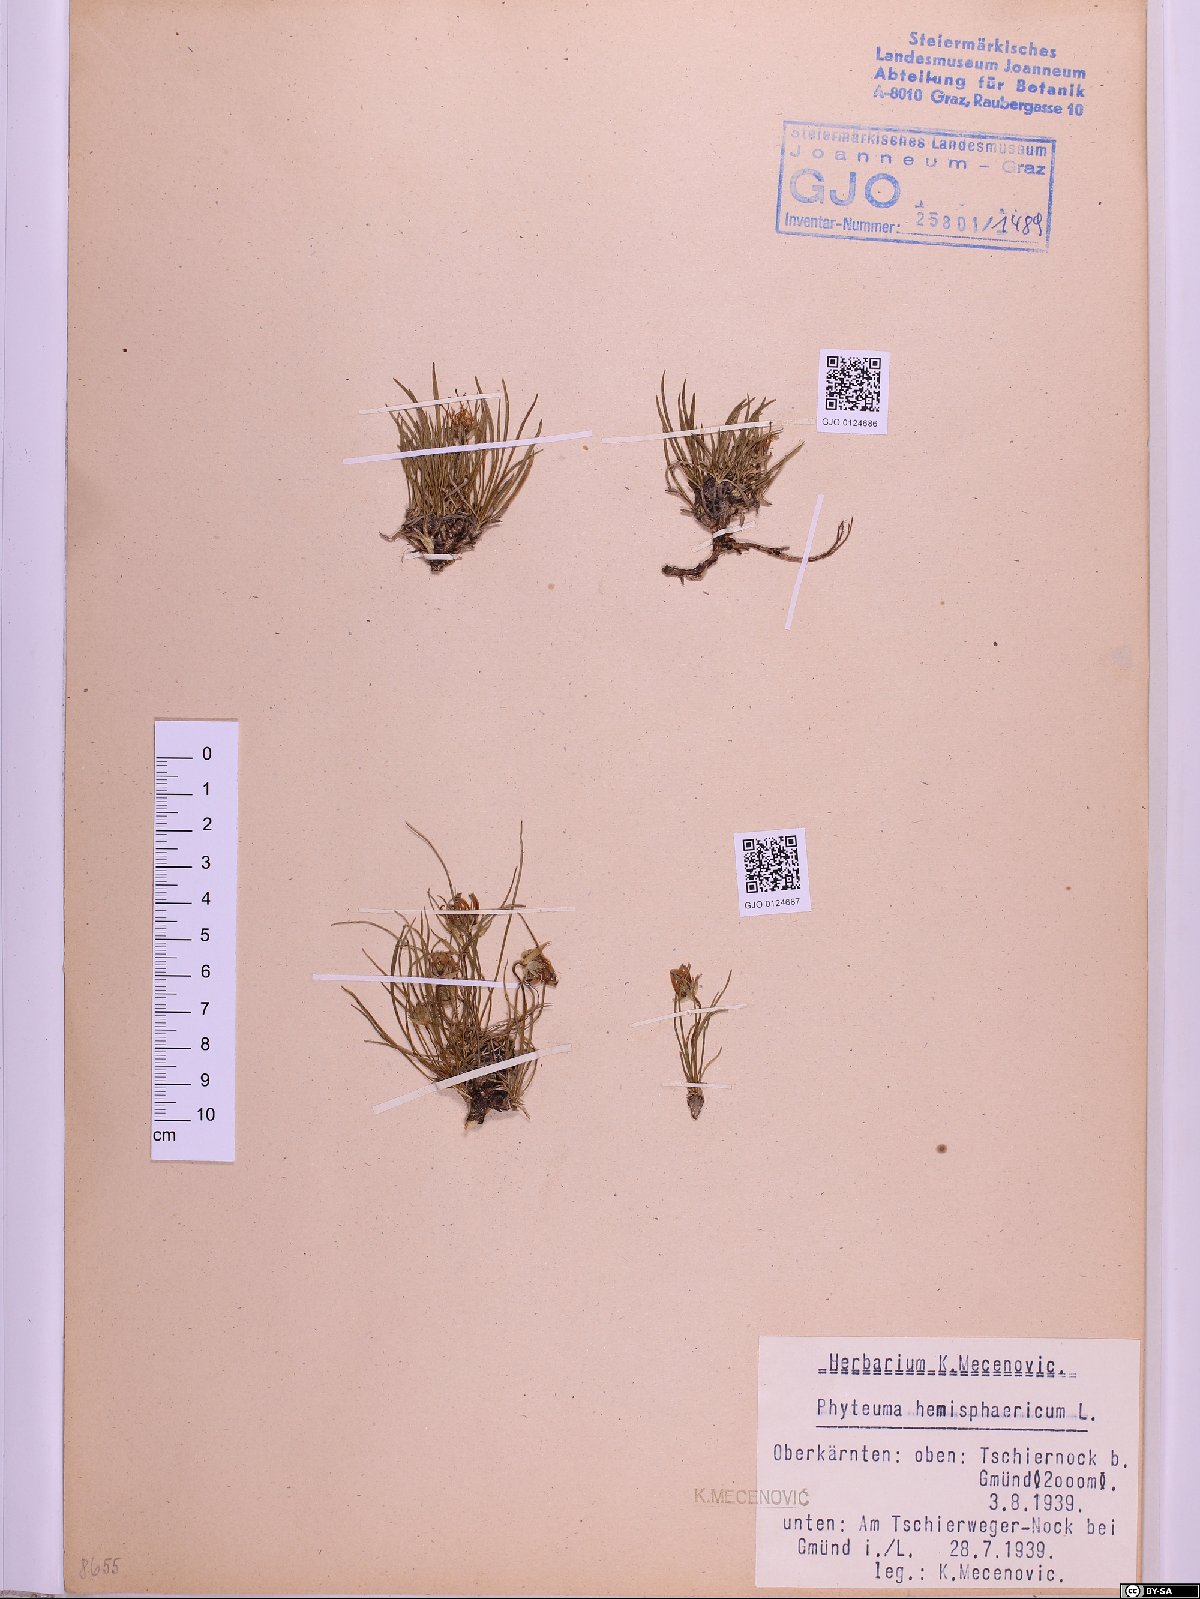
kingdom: Plantae
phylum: Tracheophyta
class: Magnoliopsida
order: Asterales
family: Campanulaceae
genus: Phyteuma
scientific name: Phyteuma hemisphaericum
